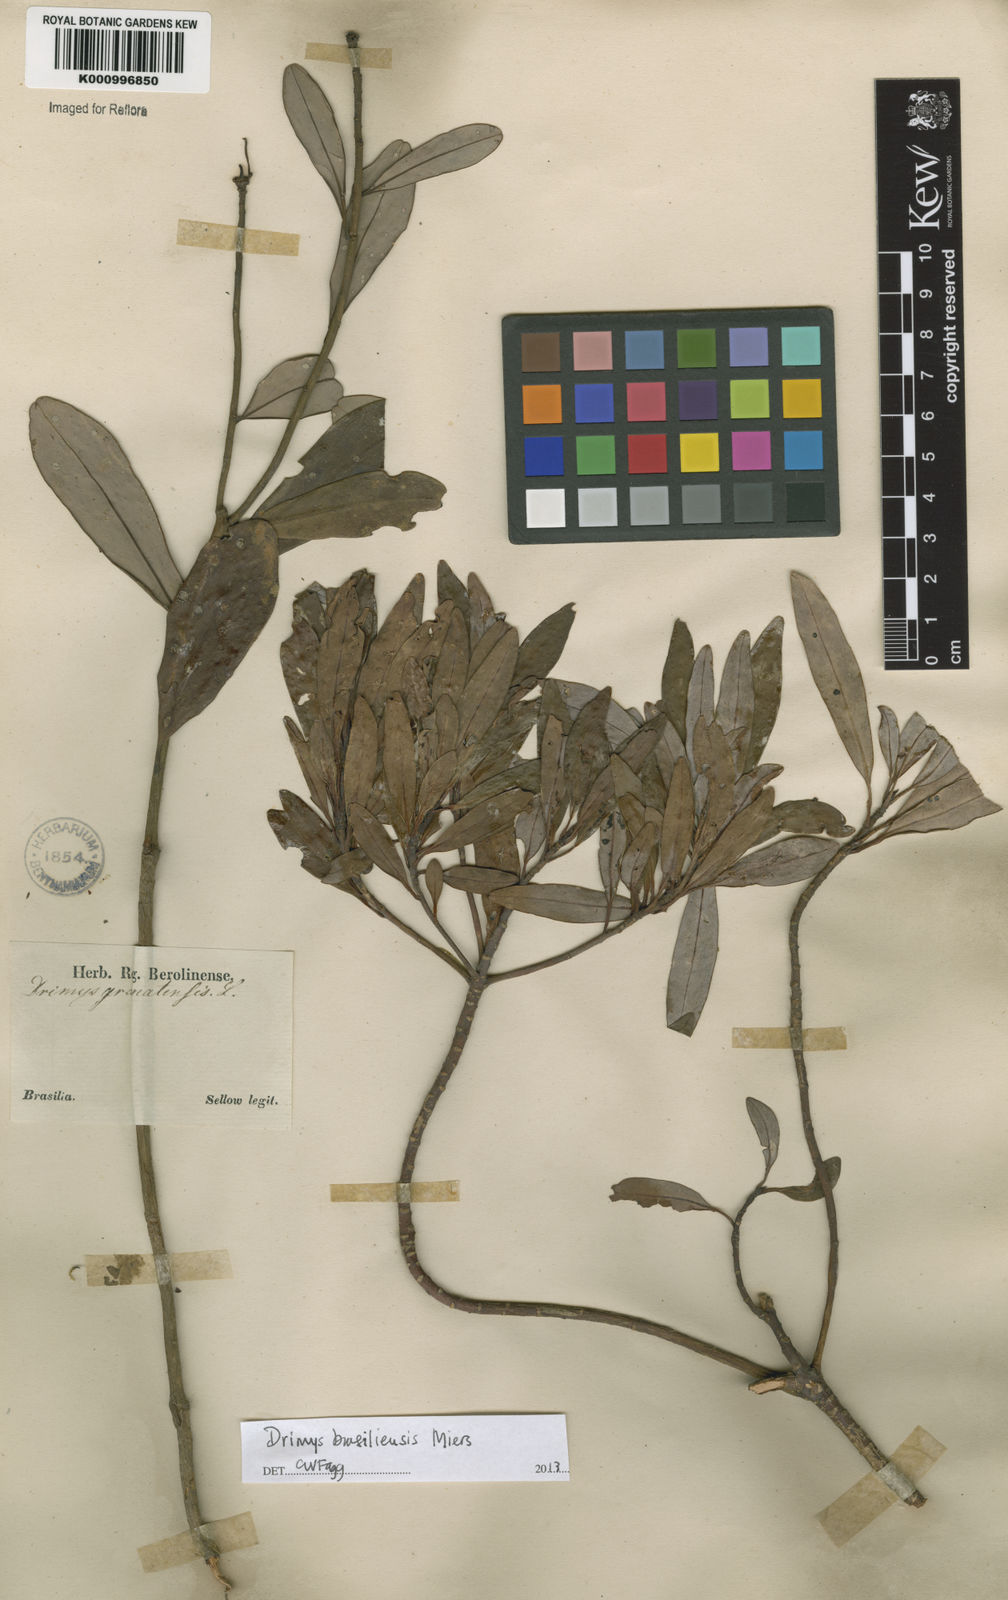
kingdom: Plantae
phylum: Tracheophyta
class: Magnoliopsida
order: Canellales
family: Winteraceae
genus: Drimys
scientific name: Drimys brasiliensis
